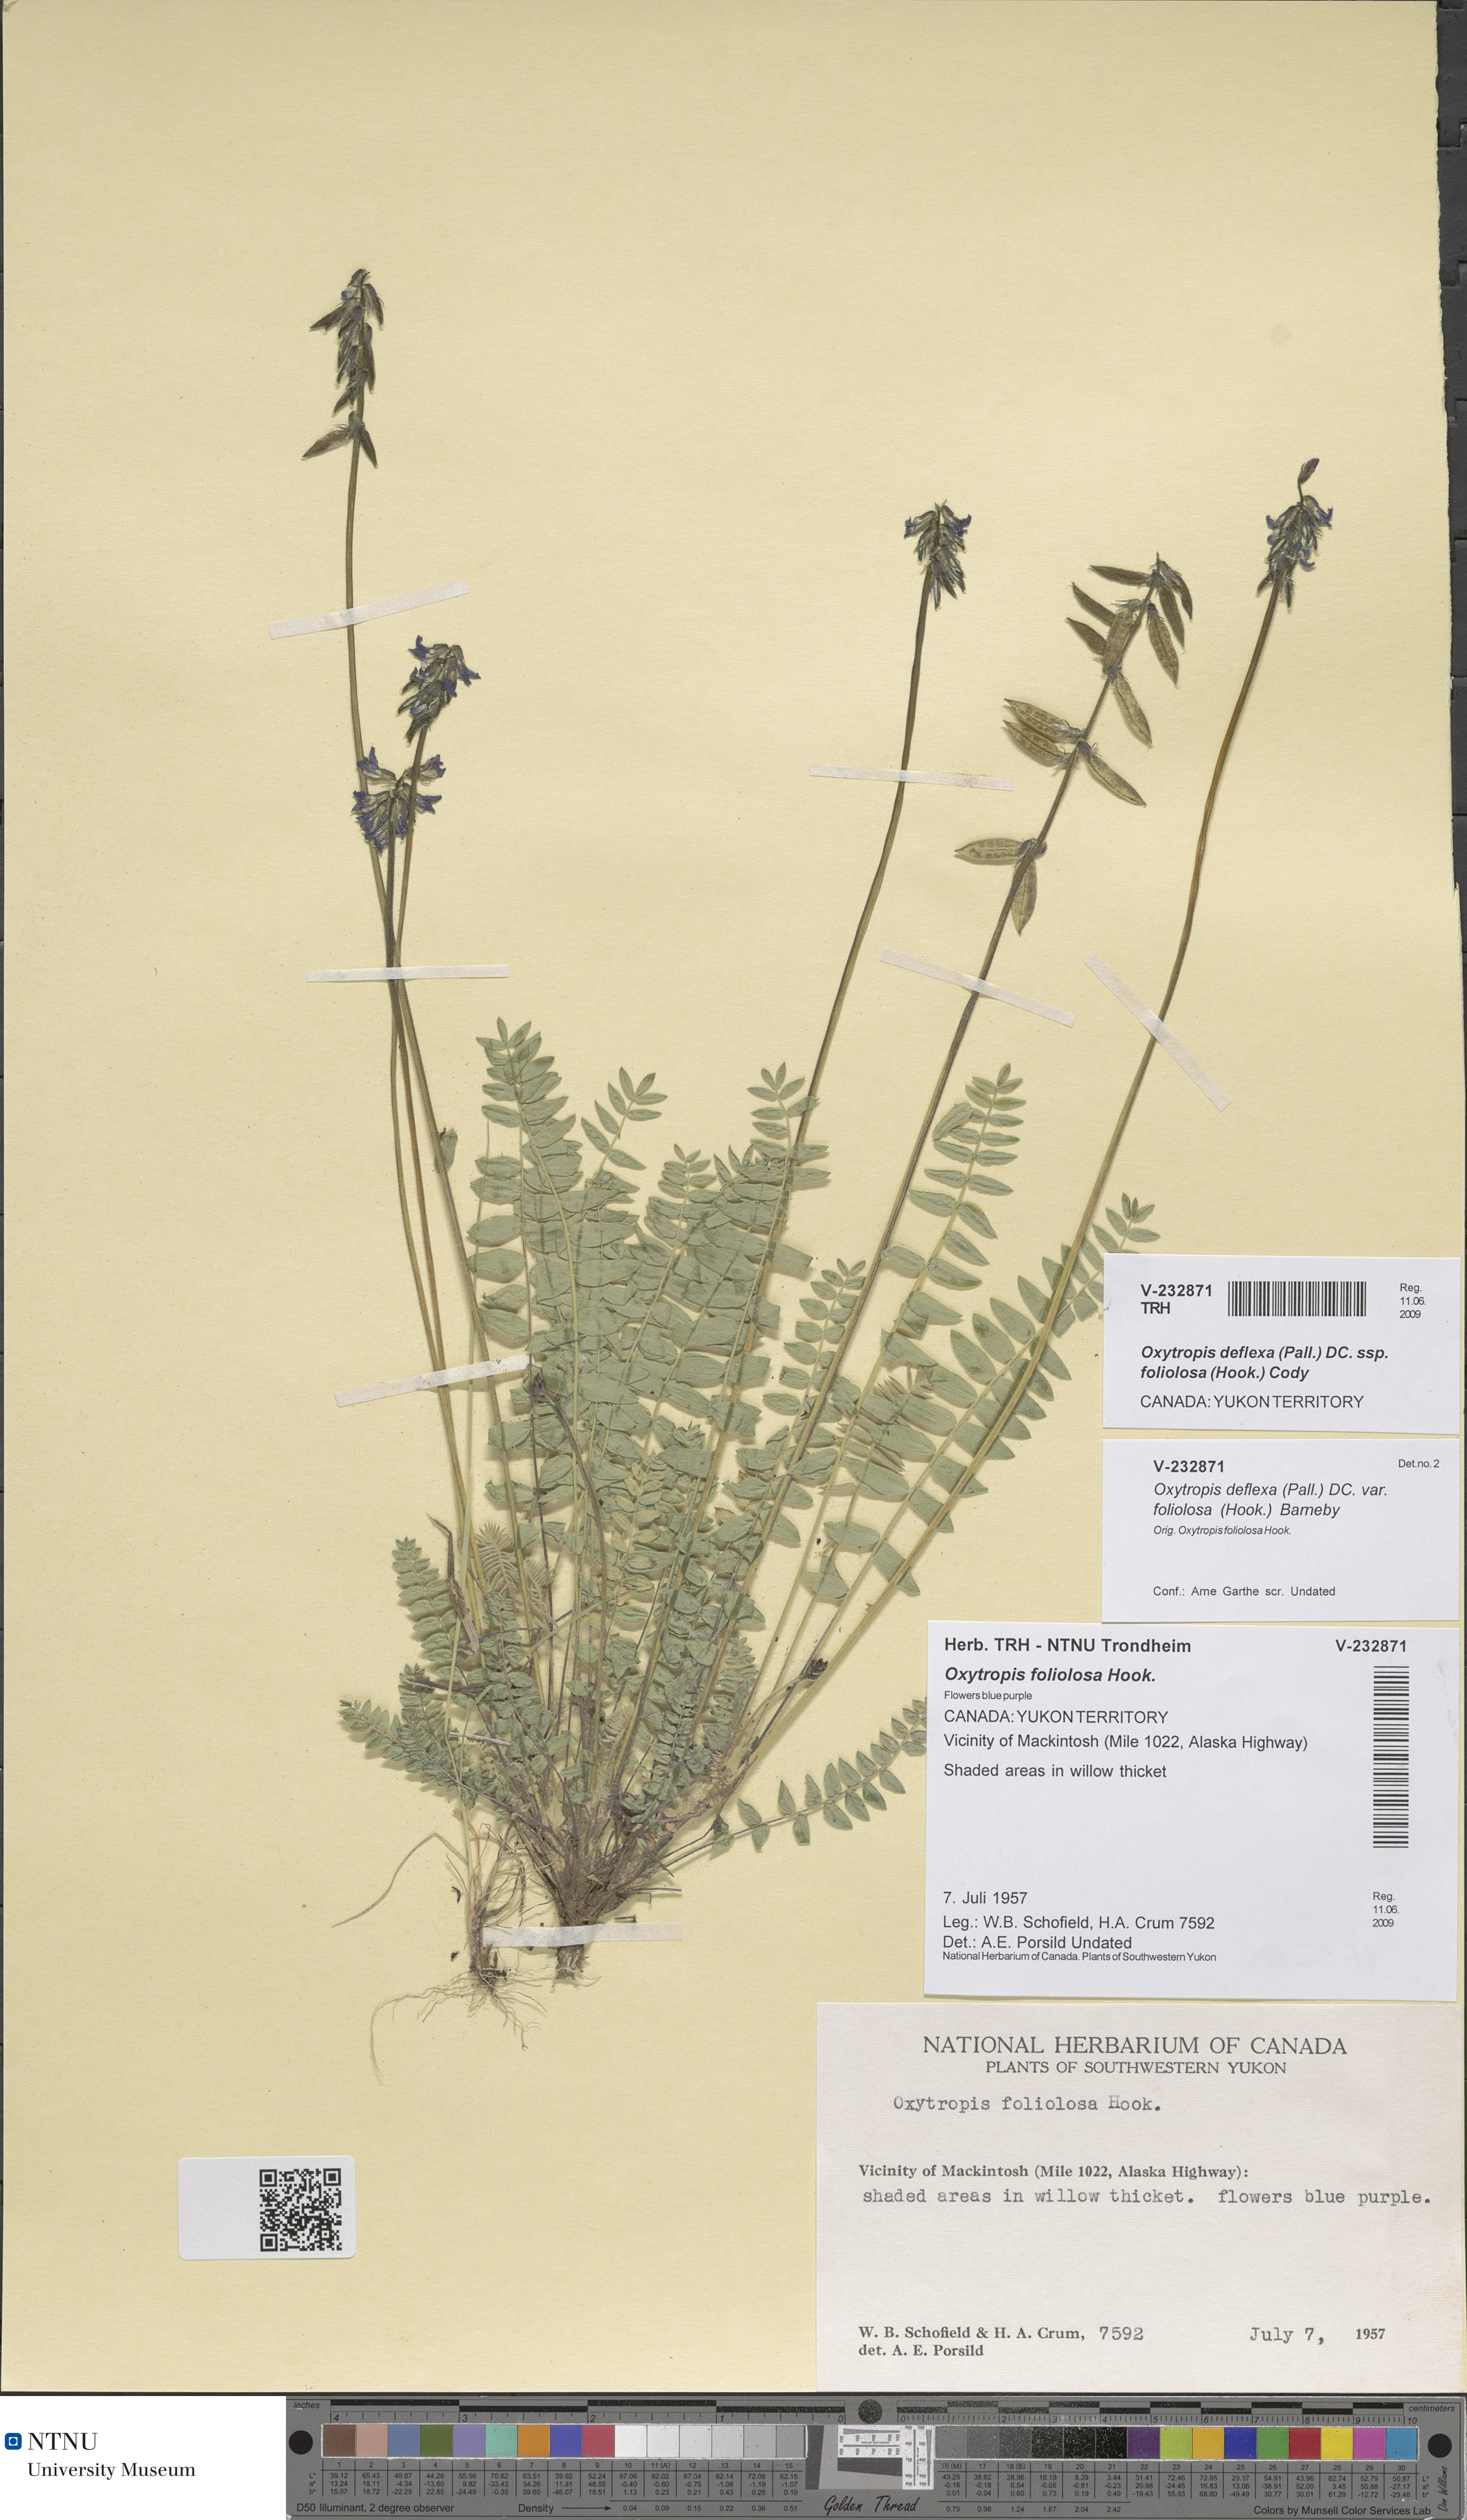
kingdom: Plantae
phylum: Tracheophyta
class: Magnoliopsida
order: Fabales
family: Fabaceae
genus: Oxytropis
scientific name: Oxytropis deflexa
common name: Stemmed oxytrope
